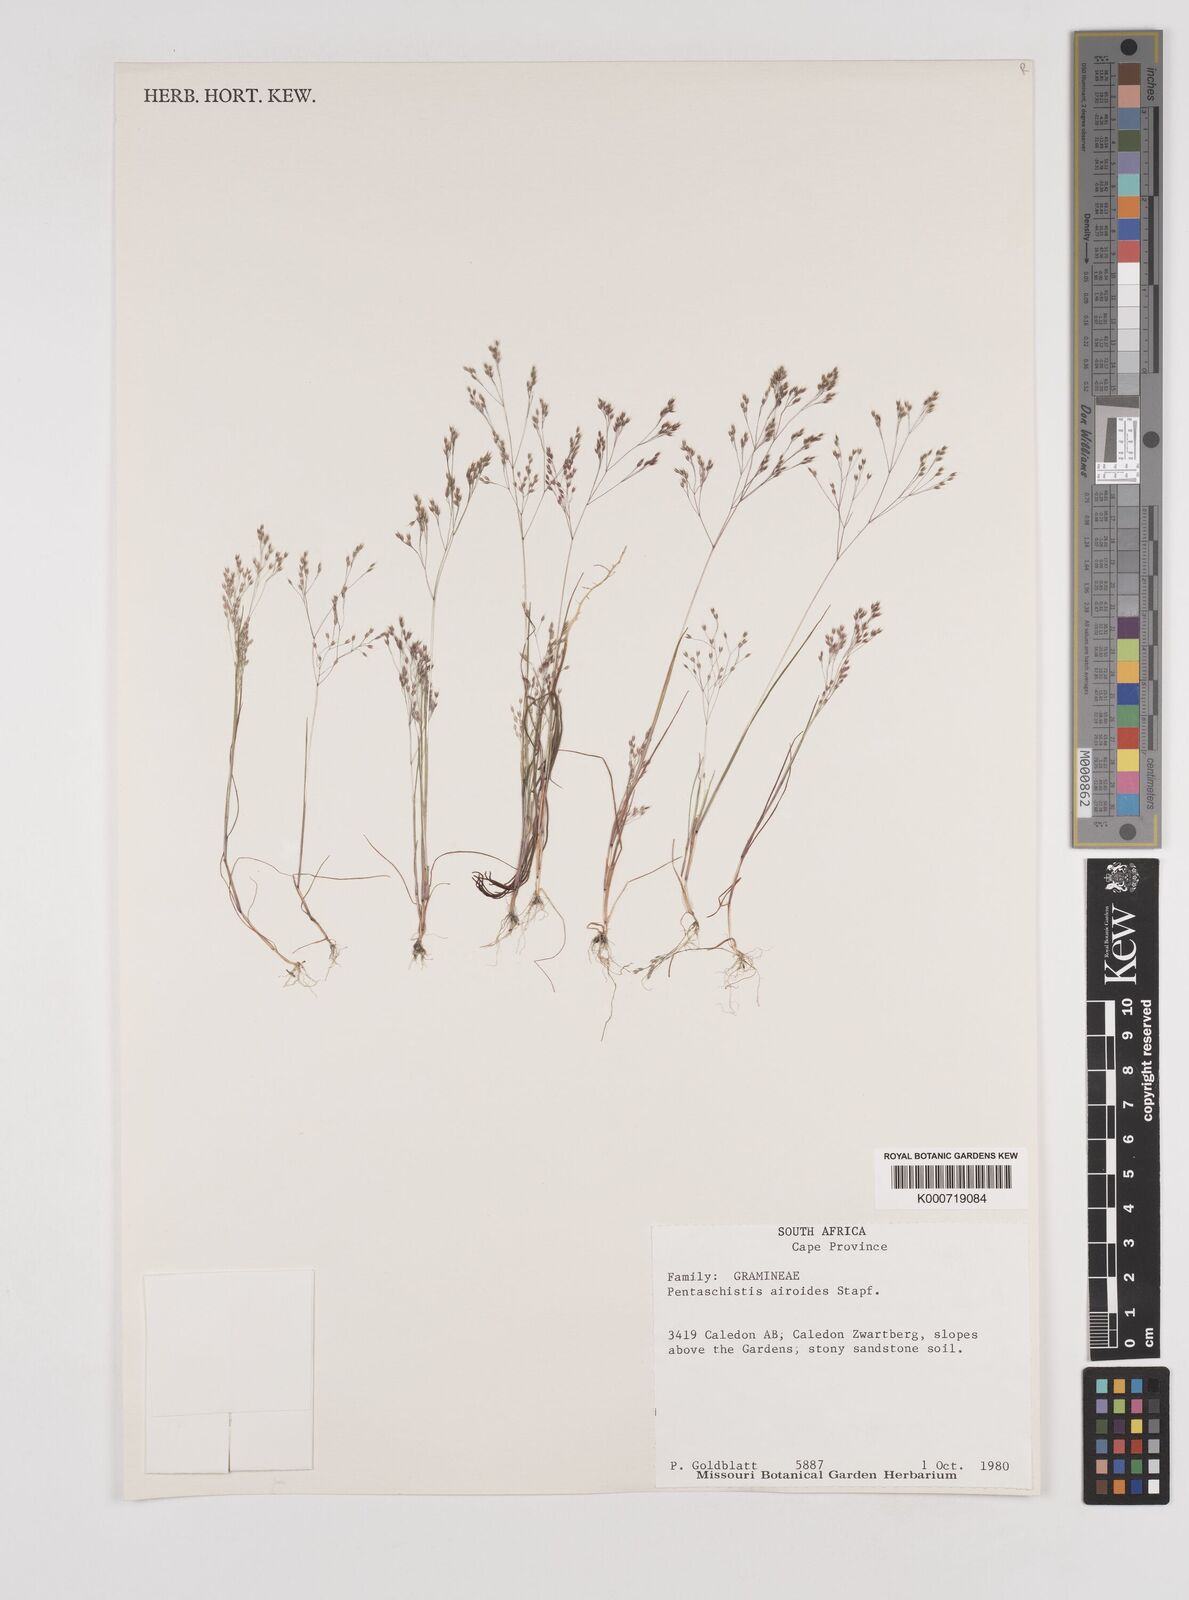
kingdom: Plantae
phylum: Tracheophyta
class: Liliopsida
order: Poales
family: Poaceae
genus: Pentameris
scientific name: Pentameris airoides
